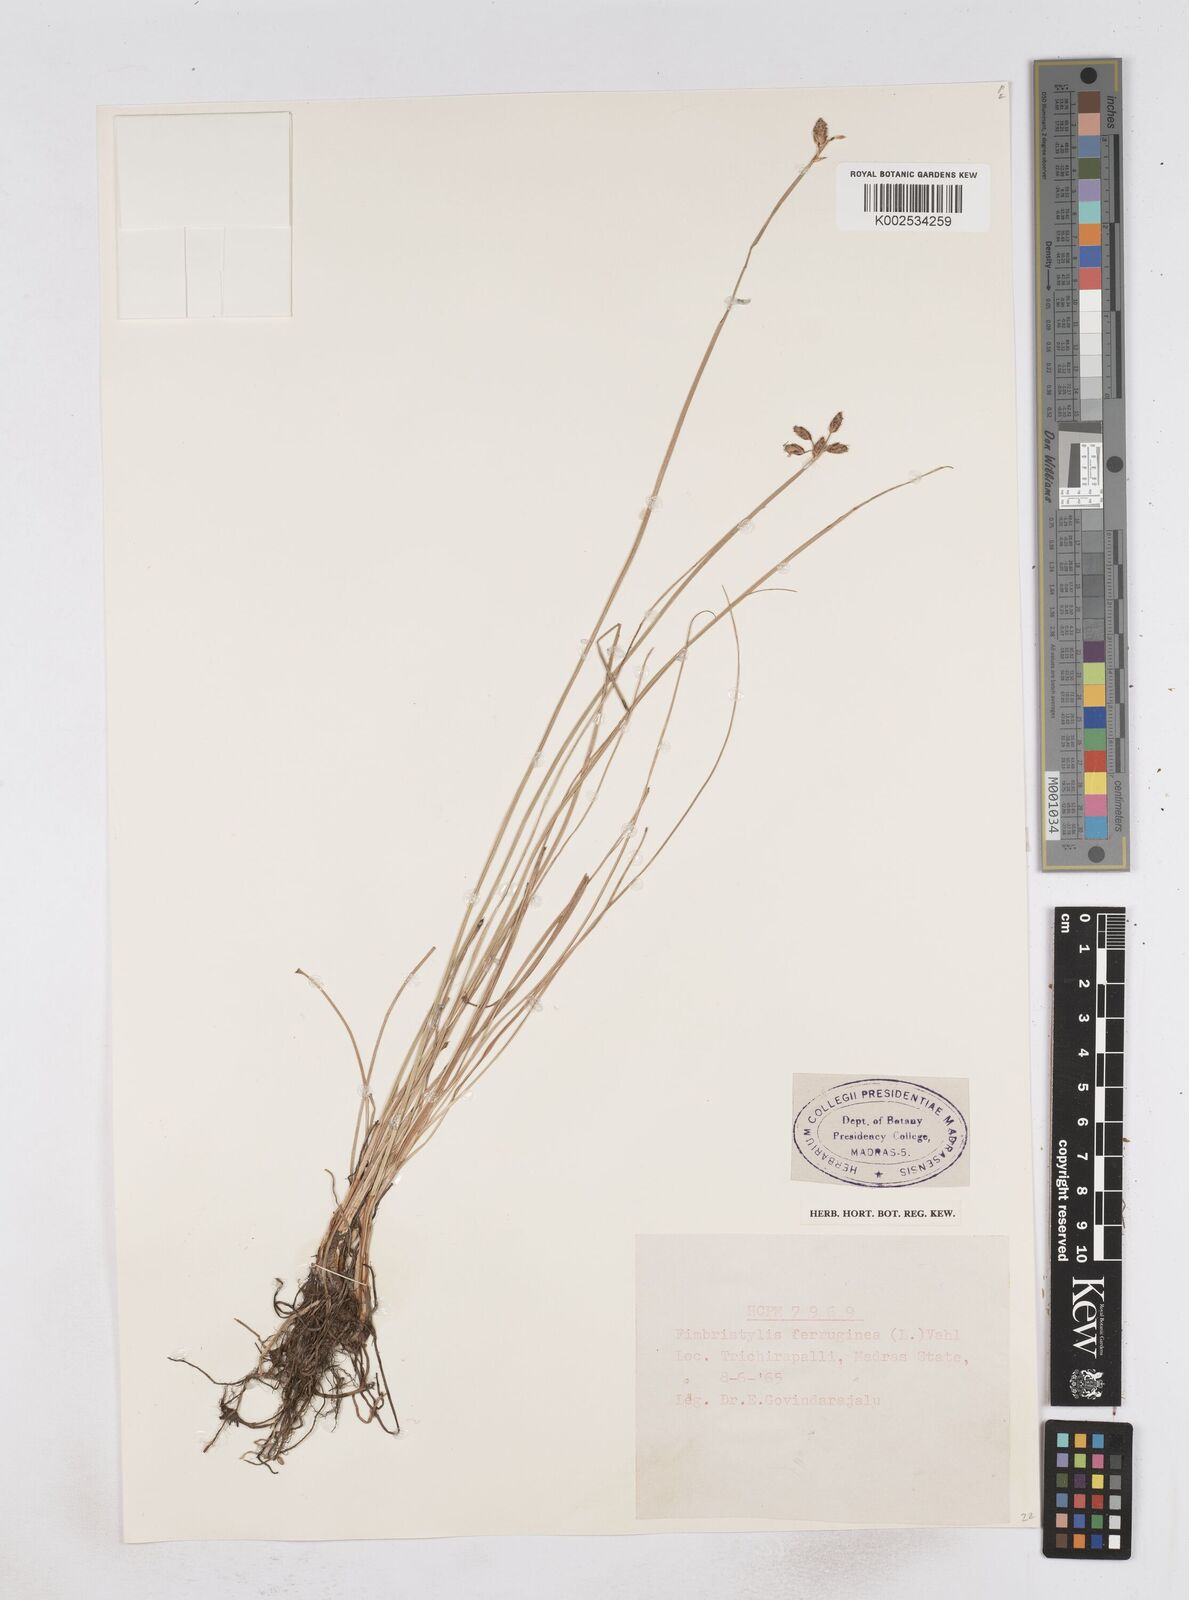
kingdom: Plantae
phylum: Tracheophyta
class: Liliopsida
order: Poales
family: Cyperaceae
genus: Fimbristylis
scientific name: Fimbristylis ferruginea
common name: West indian fimbry
